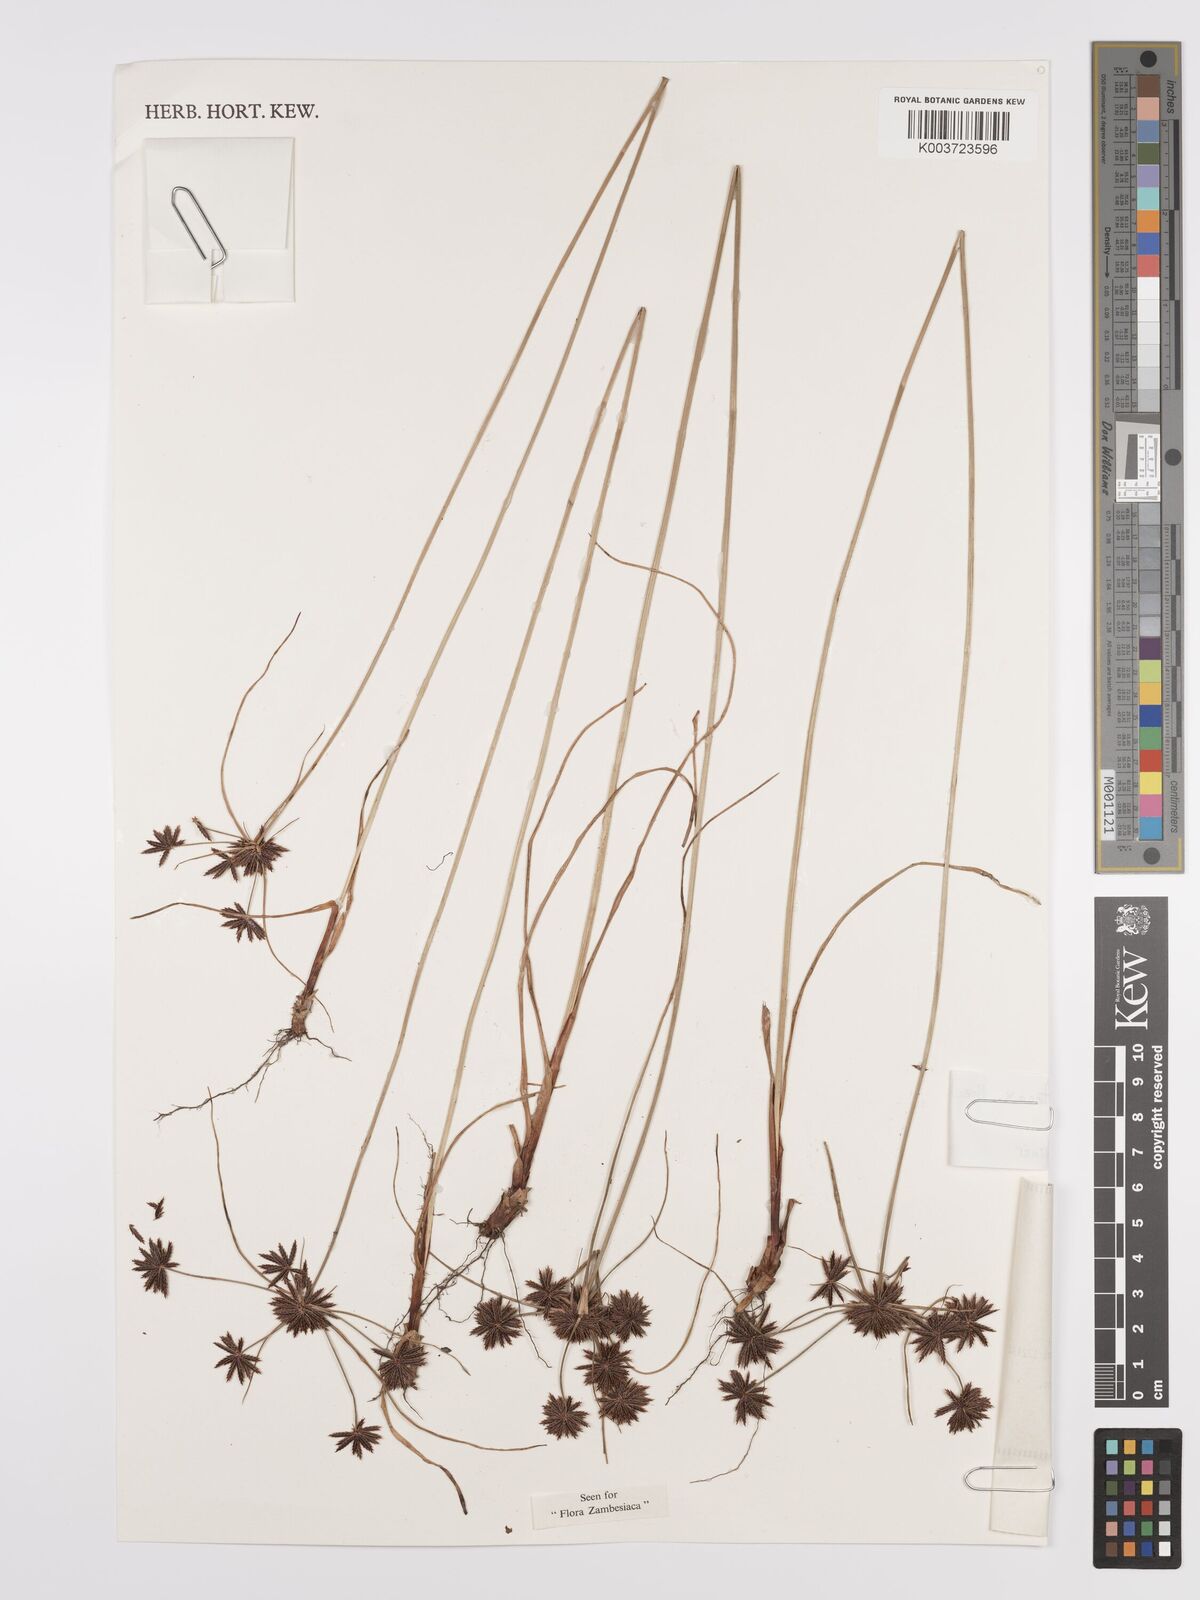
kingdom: Plantae
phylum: Tracheophyta
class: Liliopsida
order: Poales
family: Cyperaceae
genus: Cyperus
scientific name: Cyperus tenax
